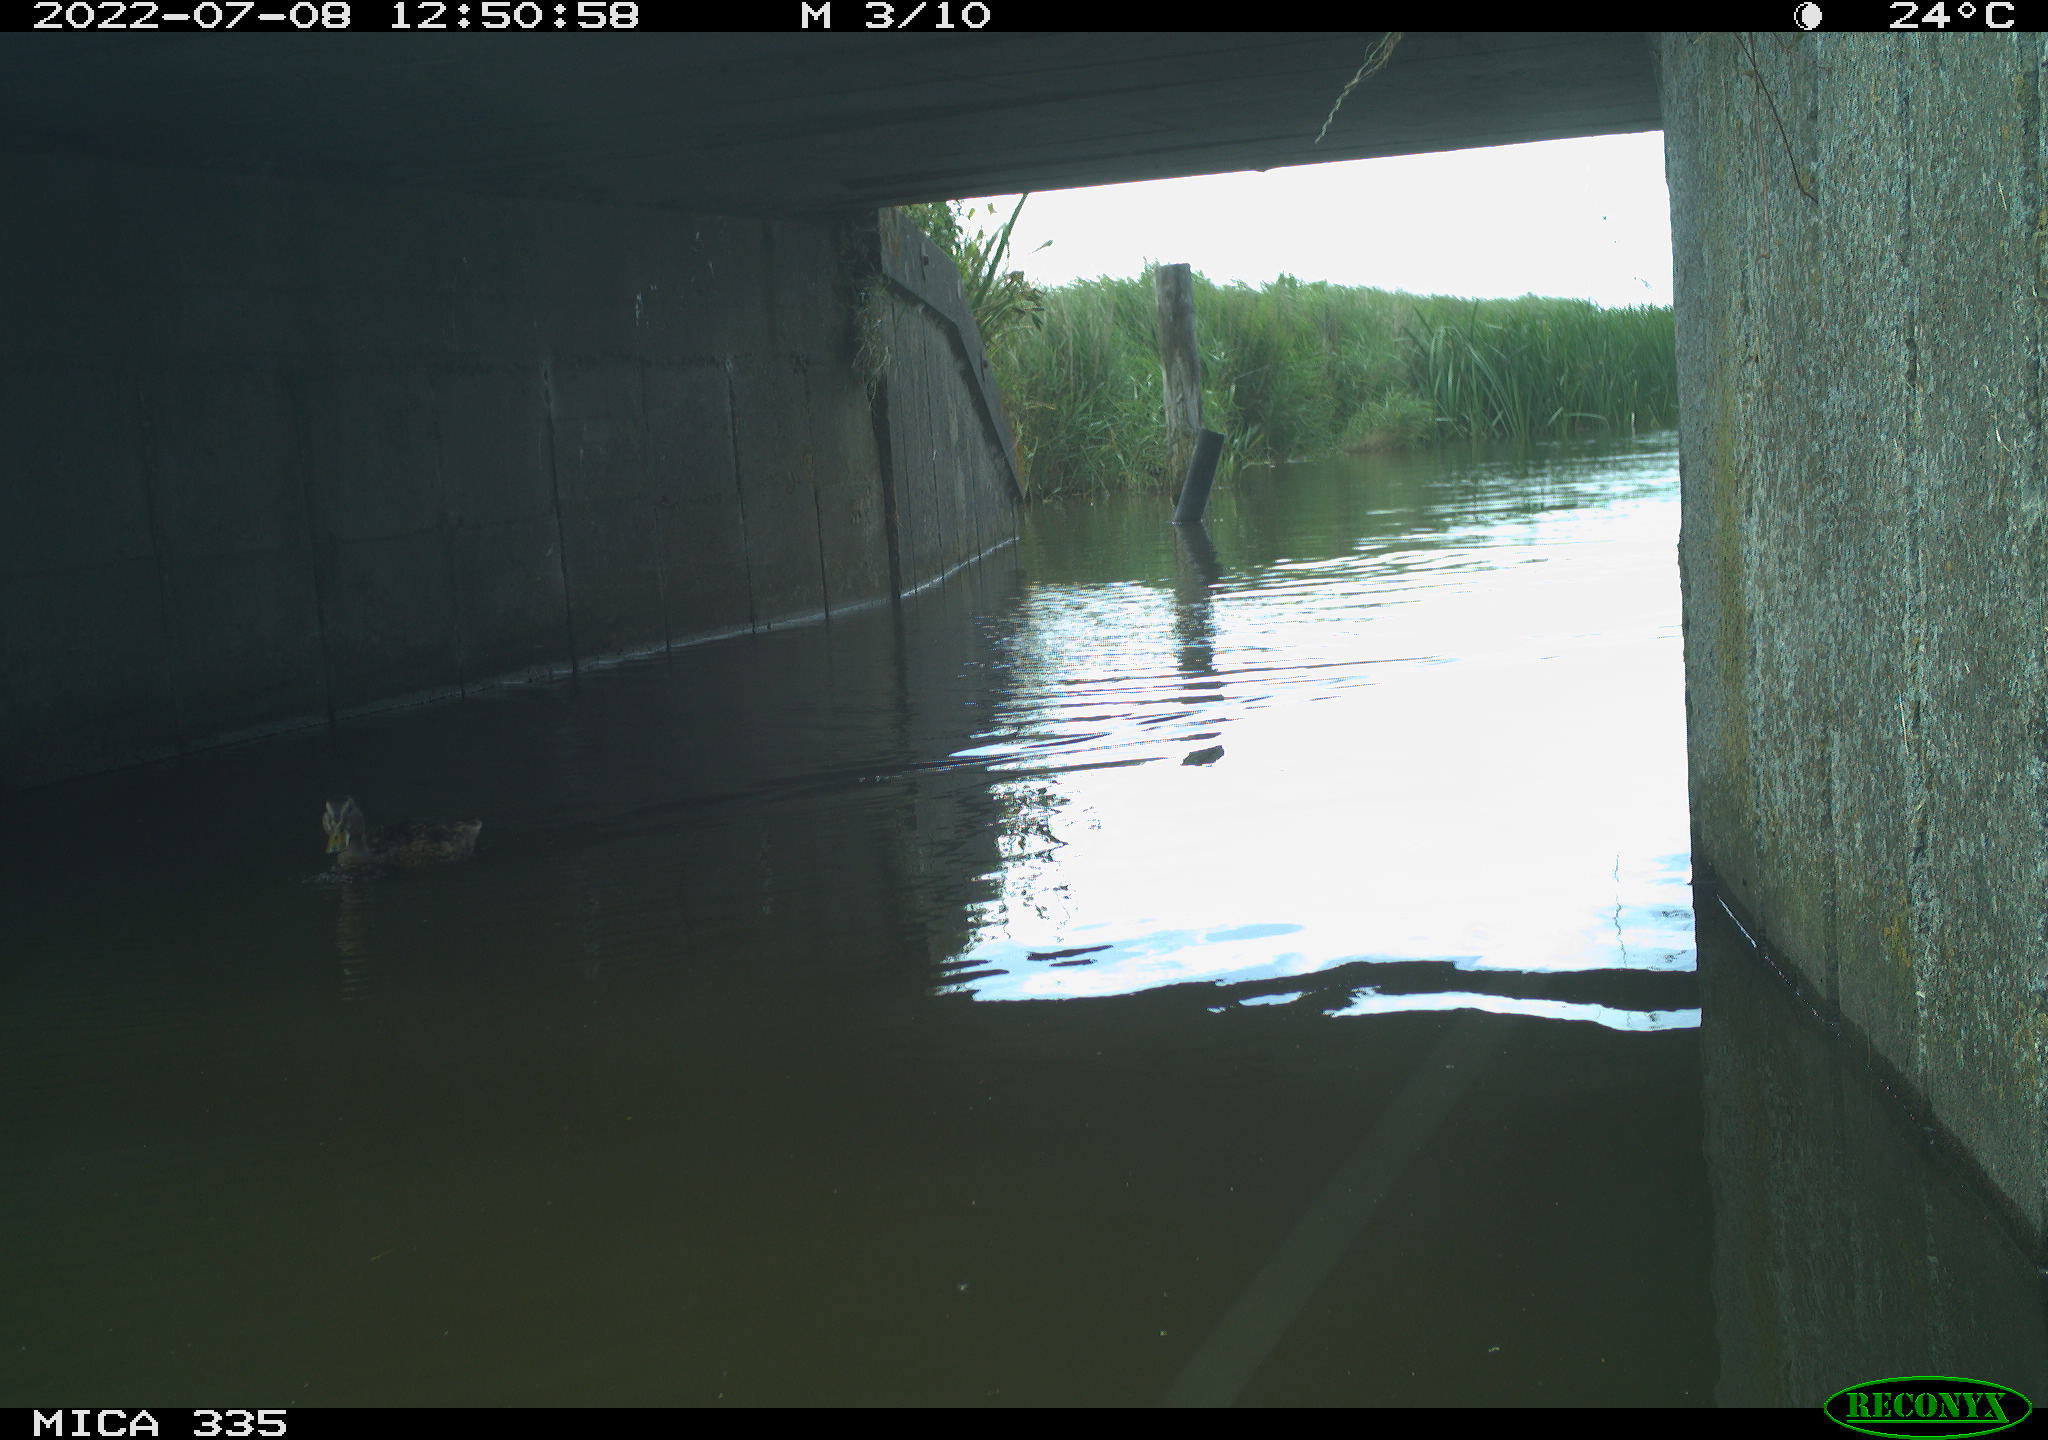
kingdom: Animalia
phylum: Chordata
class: Aves
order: Anseriformes
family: Anatidae
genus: Anas
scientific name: Anas platyrhynchos
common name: Mallard
